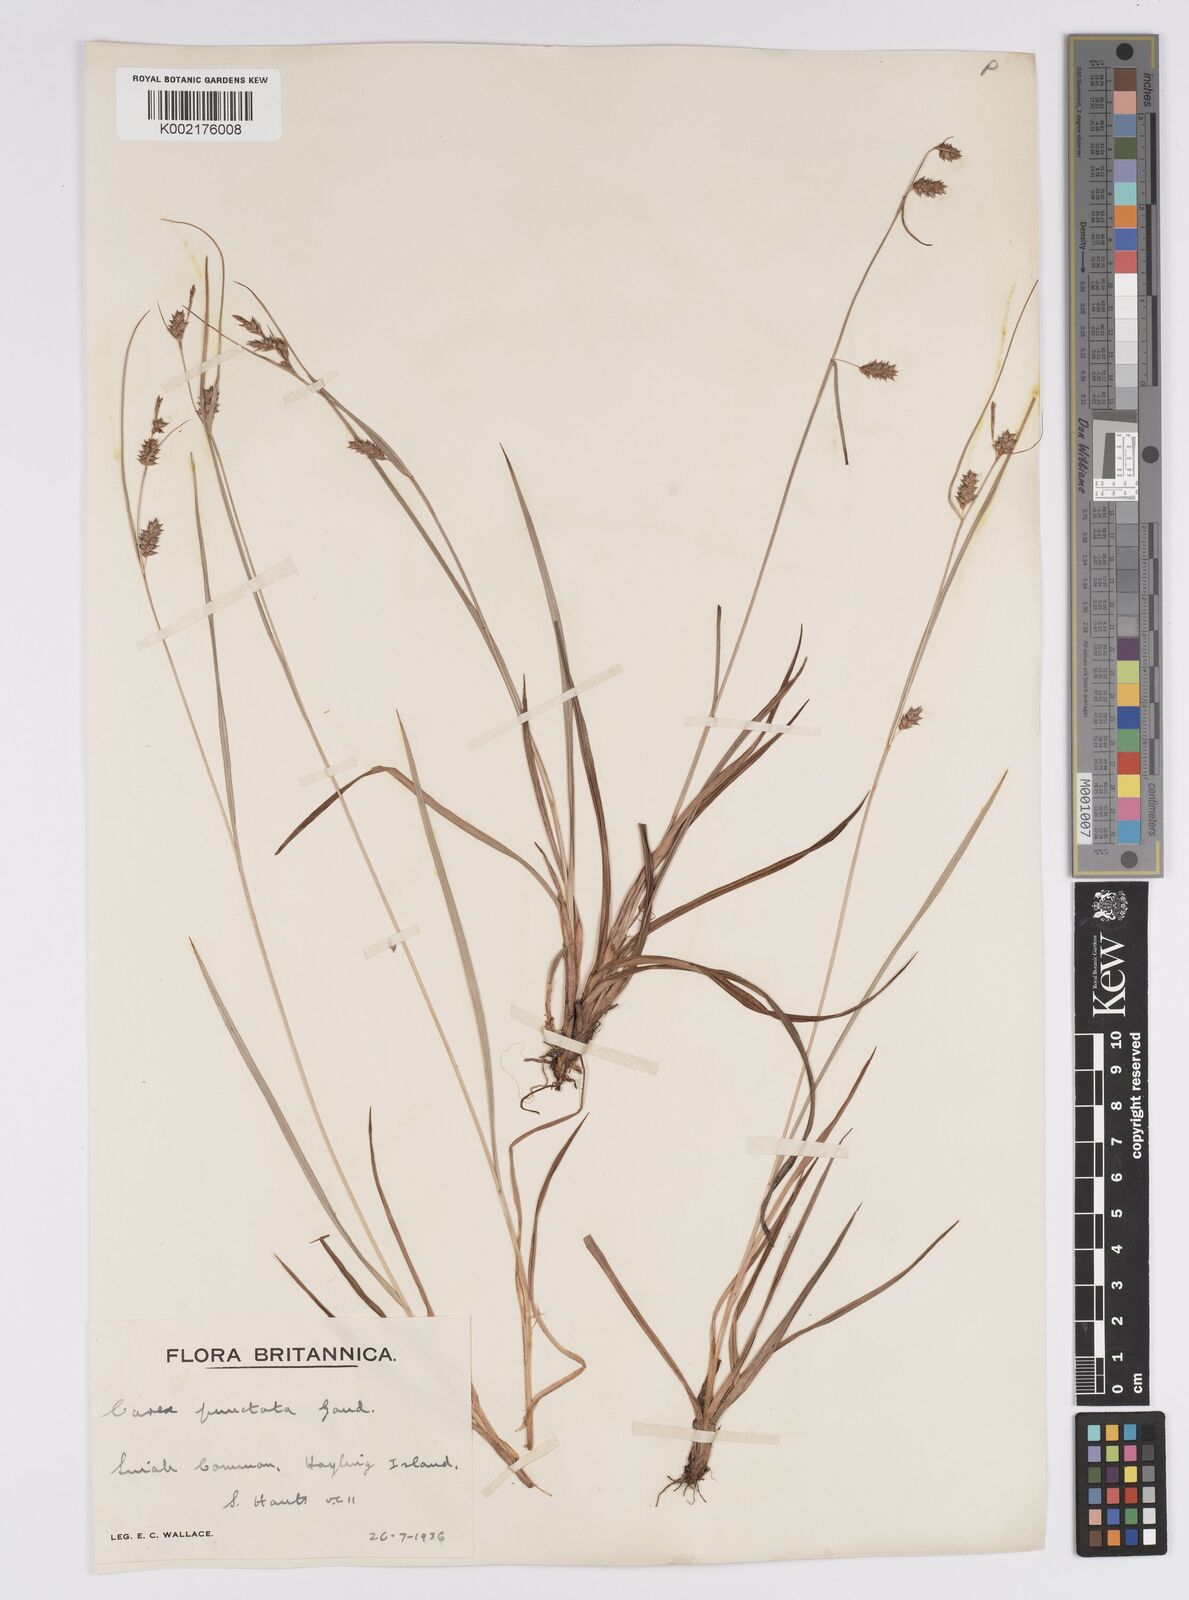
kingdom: Plantae
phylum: Tracheophyta
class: Liliopsida
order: Poales
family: Cyperaceae
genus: Carex
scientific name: Carex punctata
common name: Dotted sedge
